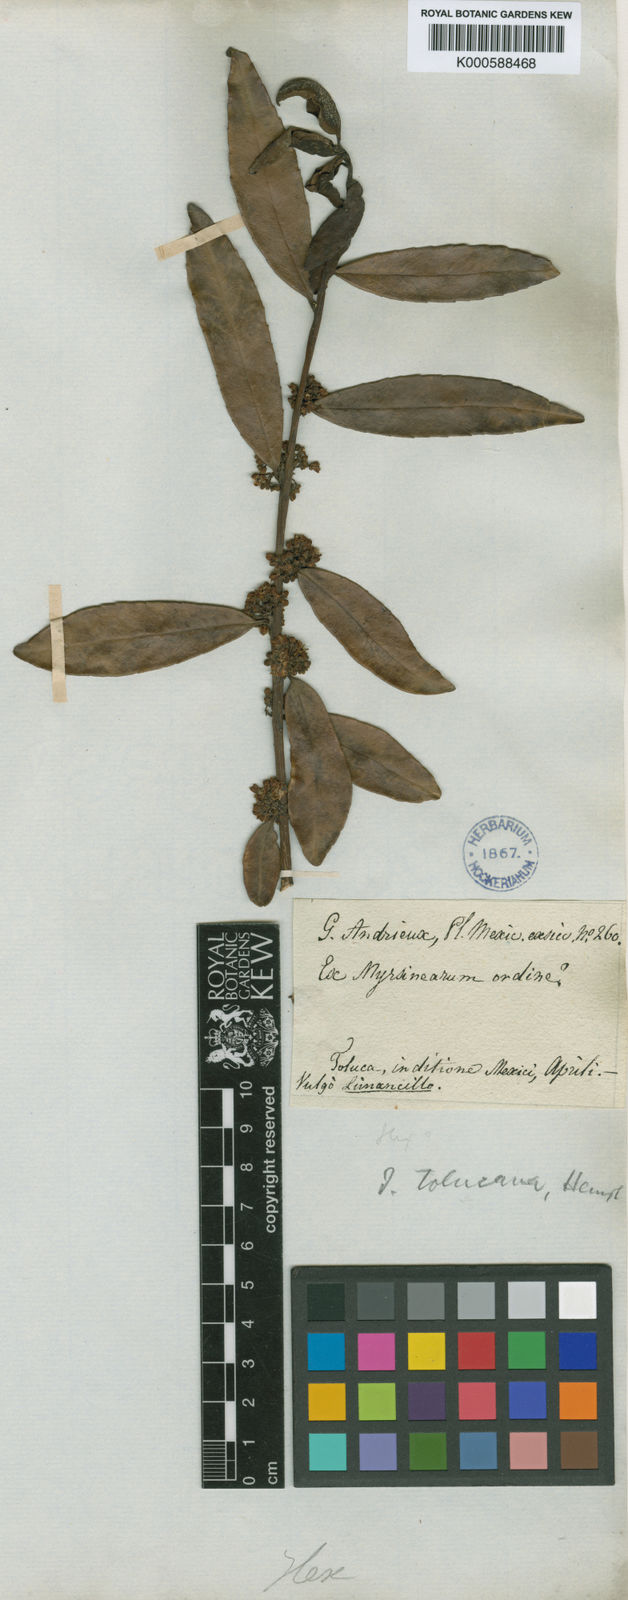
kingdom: Plantae
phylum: Tracheophyta
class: Magnoliopsida
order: Aquifoliales
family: Aquifoliaceae
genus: Ilex
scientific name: Ilex discolor
